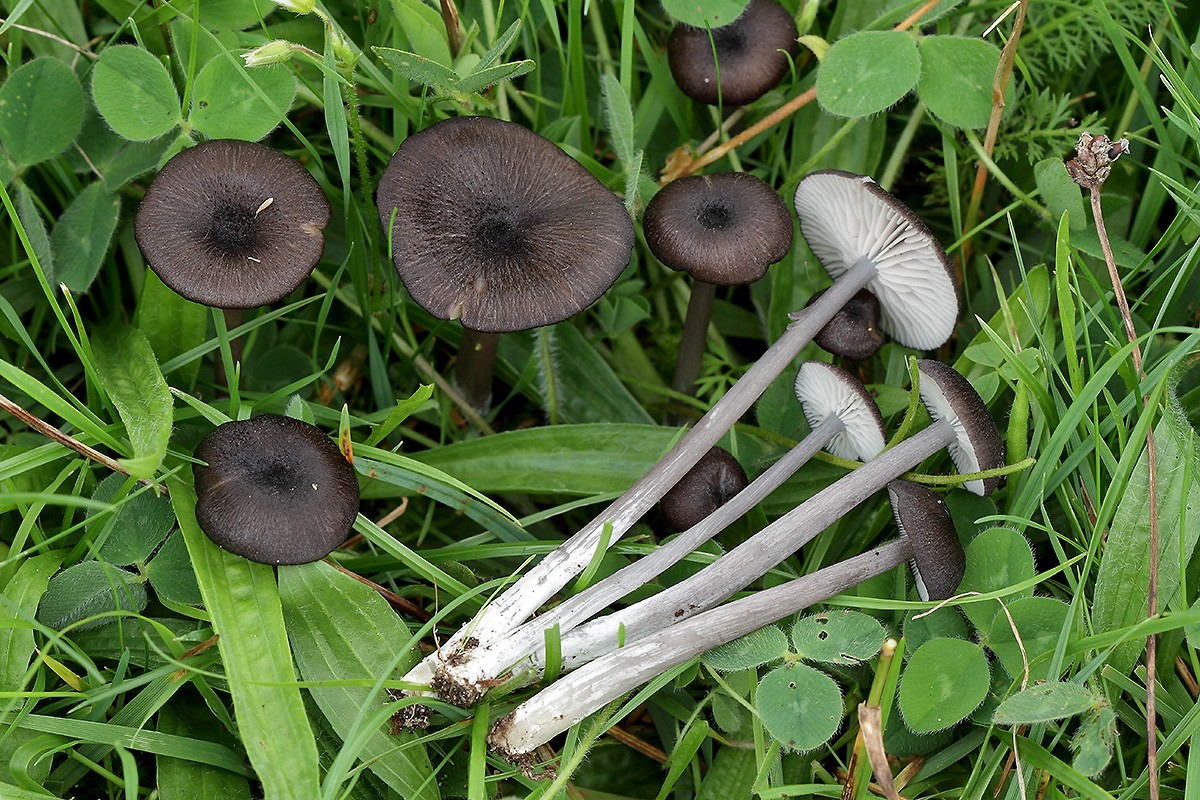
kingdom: Fungi
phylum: Basidiomycota
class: Agaricomycetes
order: Agaricales
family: Entolomataceae
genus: Entoloma
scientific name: Entoloma porphyrogriseum
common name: porfyrgrå rødblad
